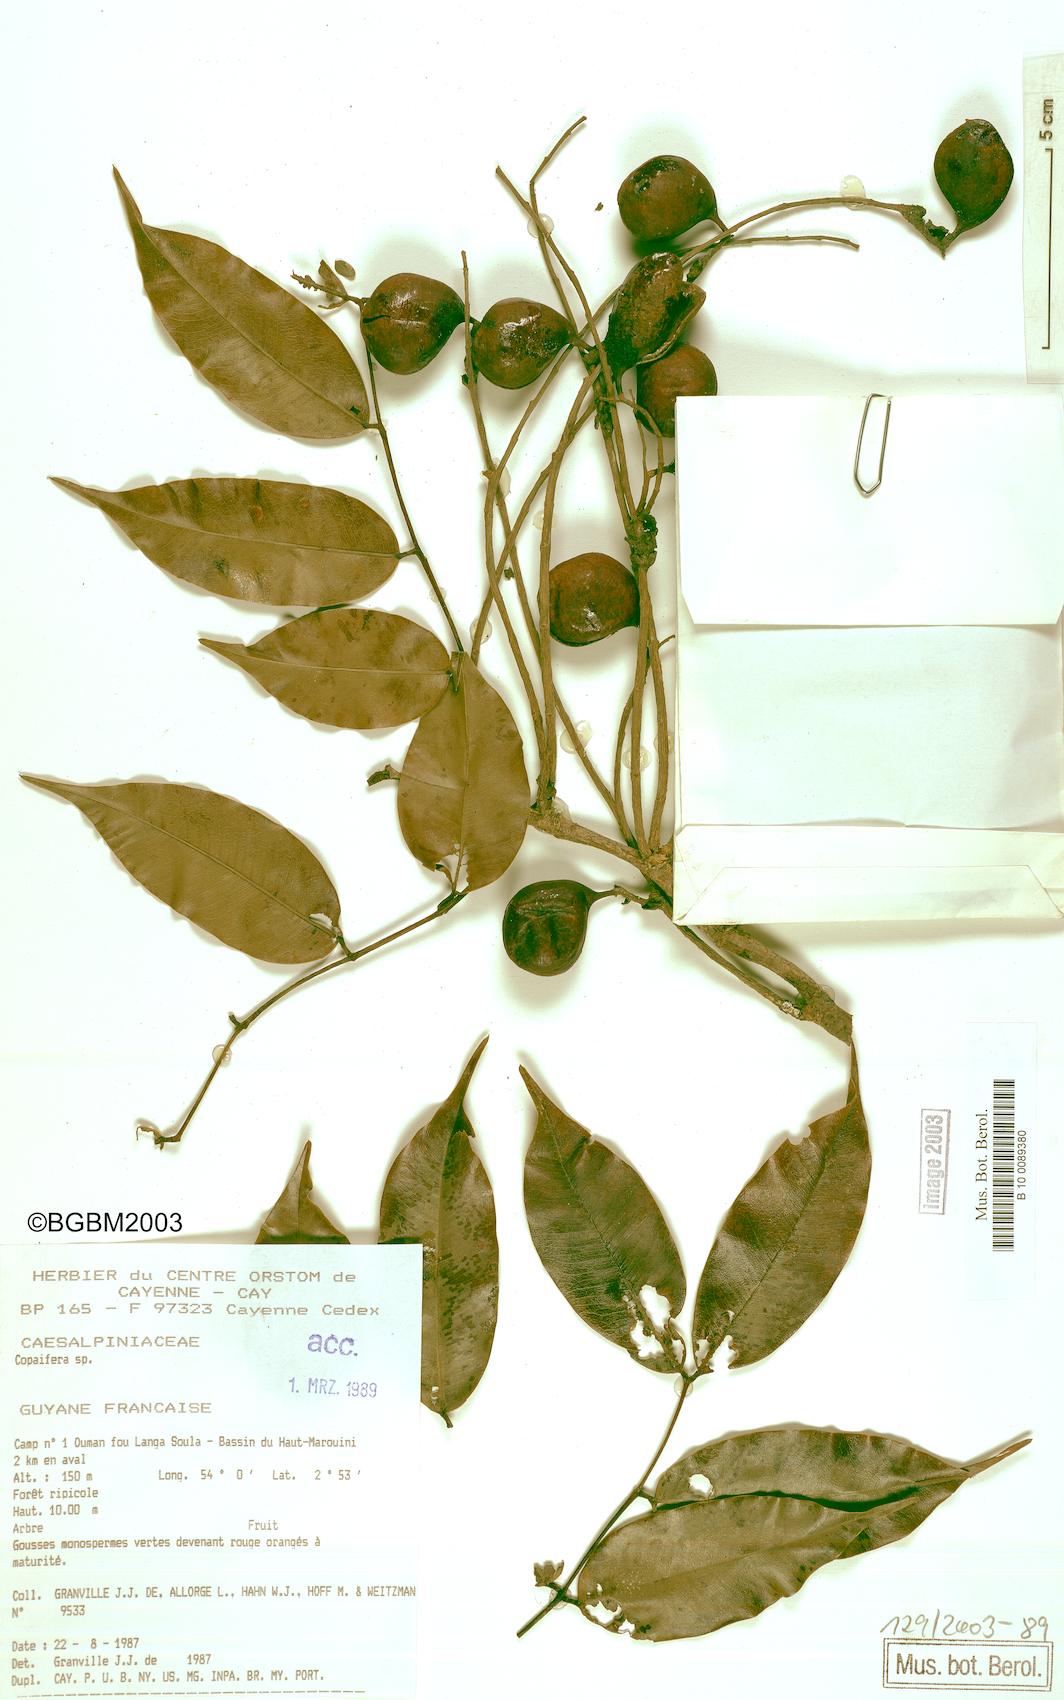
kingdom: Plantae
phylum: Tracheophyta
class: Magnoliopsida
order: Fabales
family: Fabaceae
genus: Copaifera
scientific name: Copaifera
